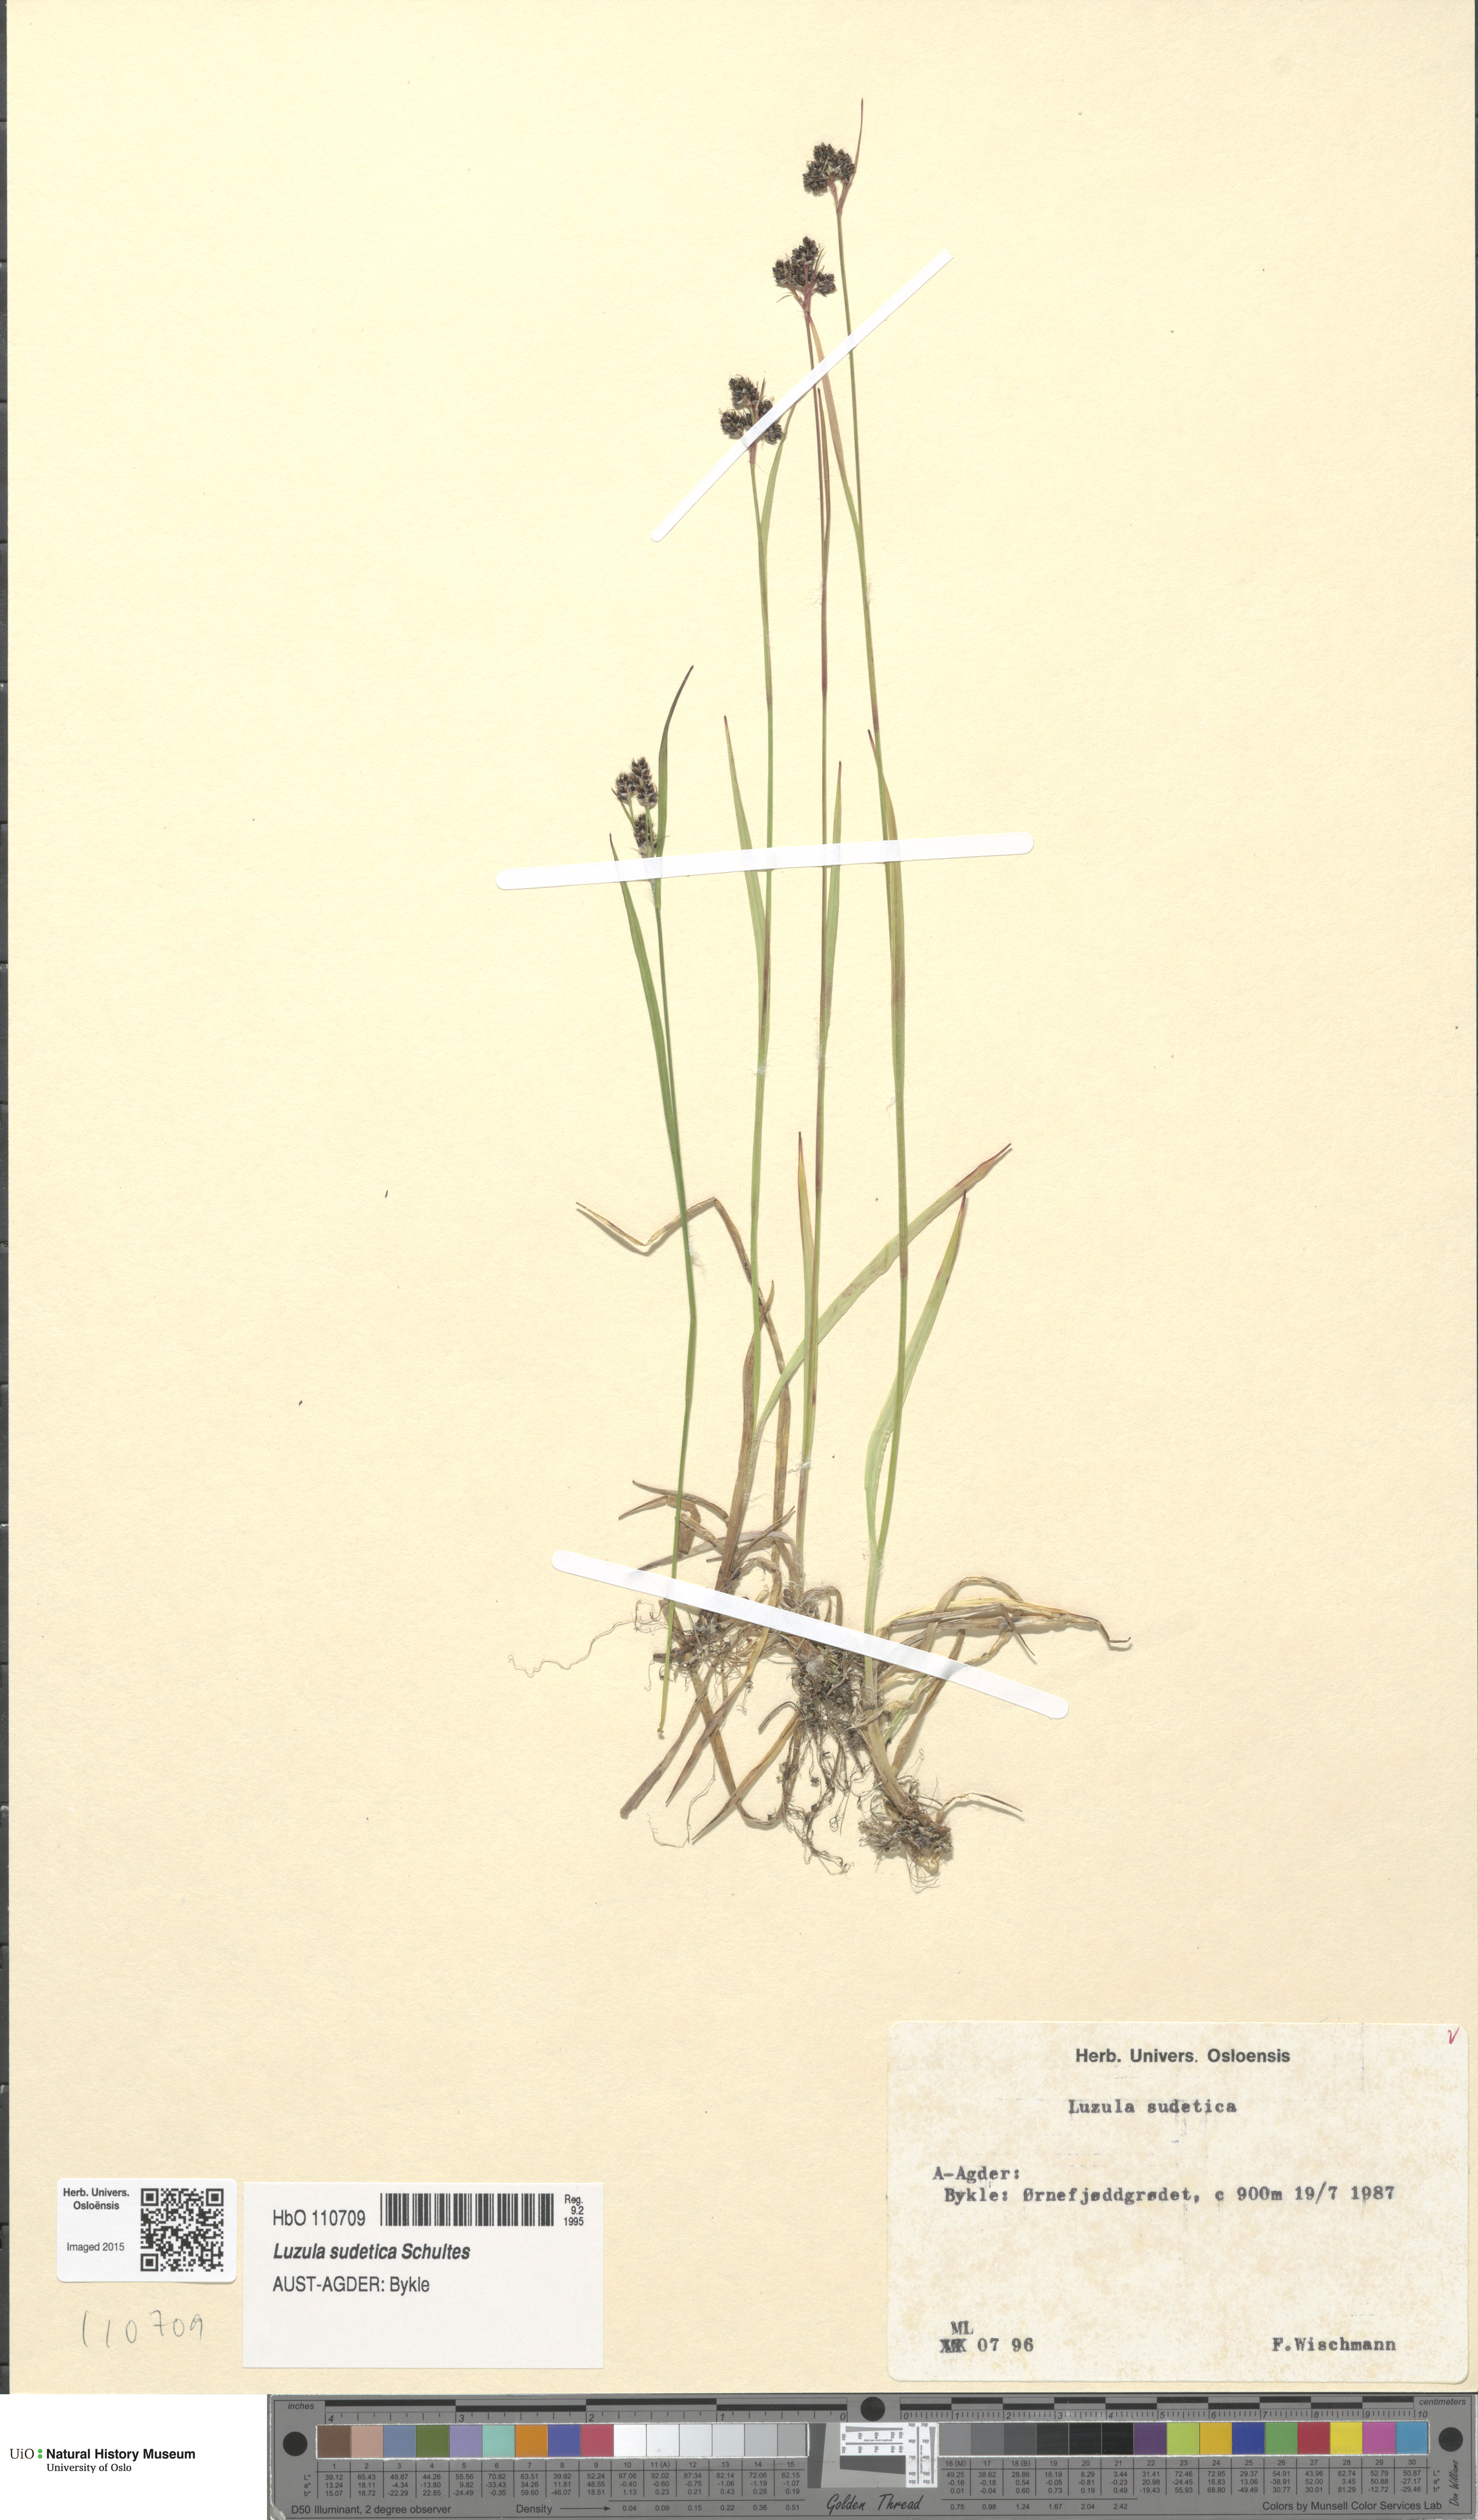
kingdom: Plantae
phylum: Tracheophyta
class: Liliopsida
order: Poales
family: Juncaceae
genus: Luzula
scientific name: Luzula sudetica
